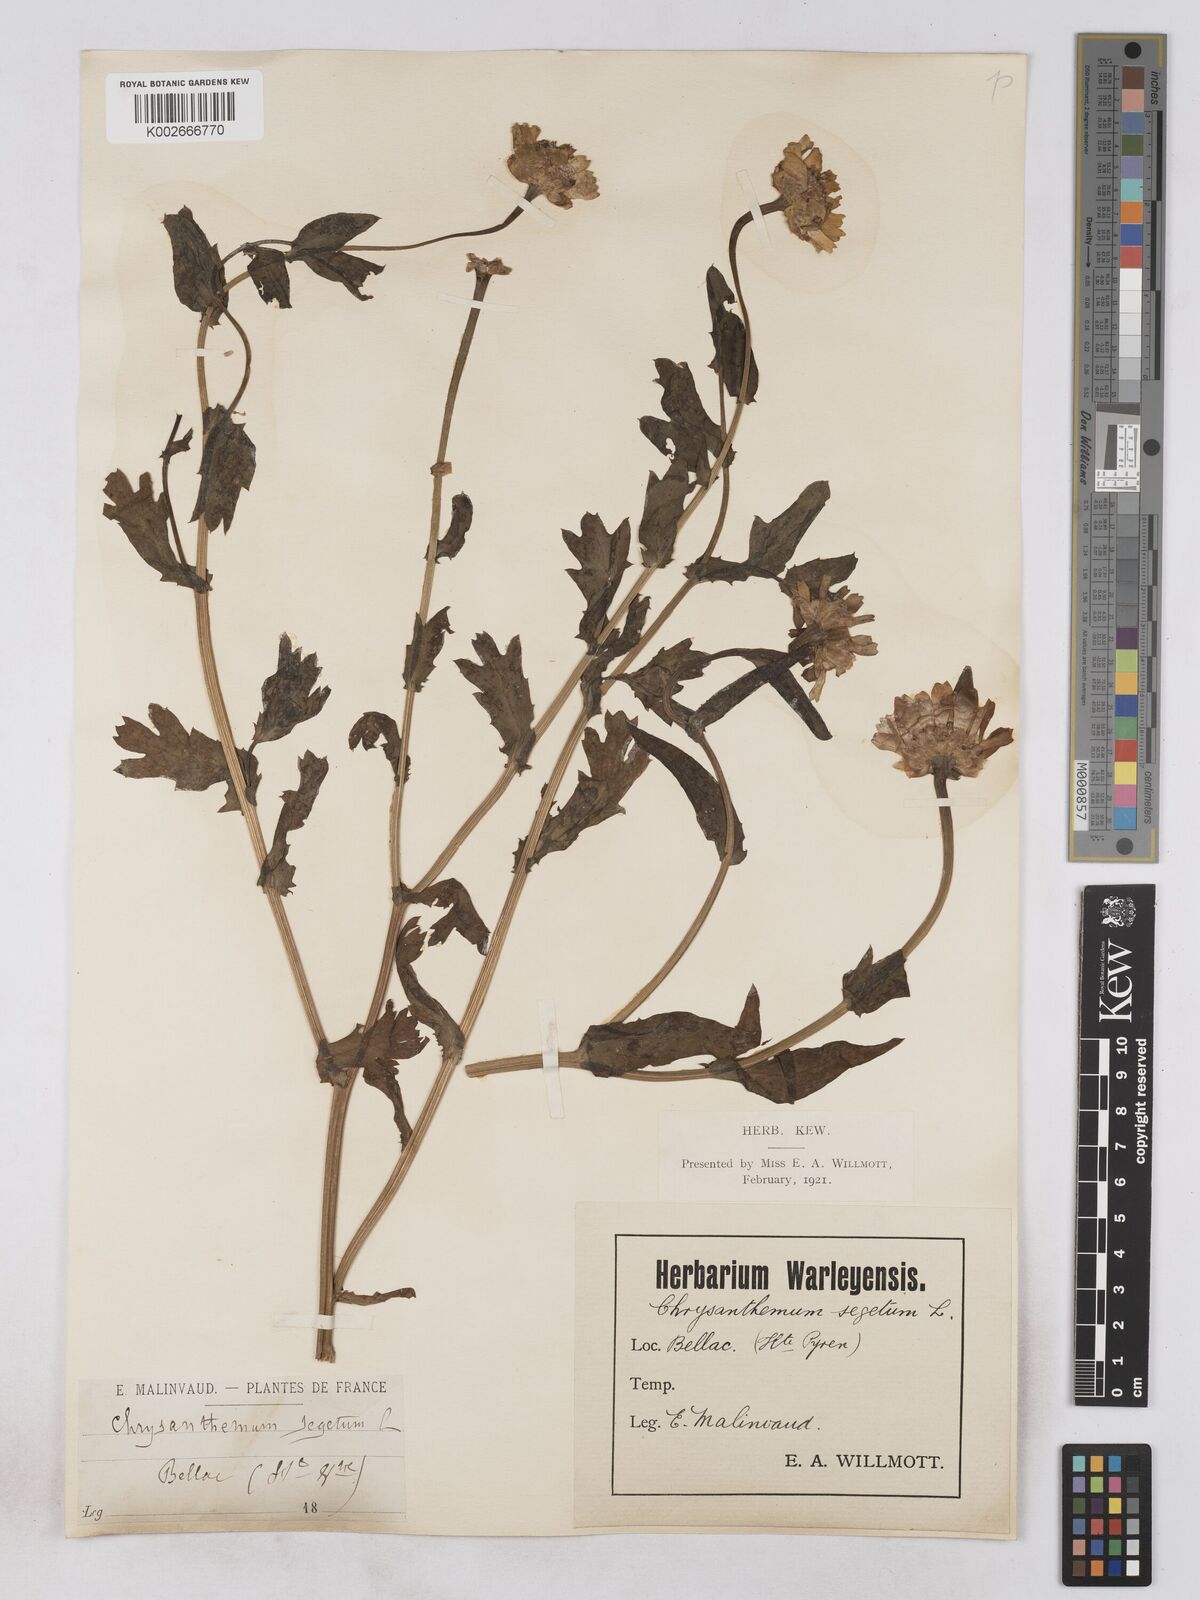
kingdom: Plantae
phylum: Tracheophyta
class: Magnoliopsida
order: Asterales
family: Asteraceae
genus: Glebionis
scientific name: Glebionis segetum
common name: Corndaisy
